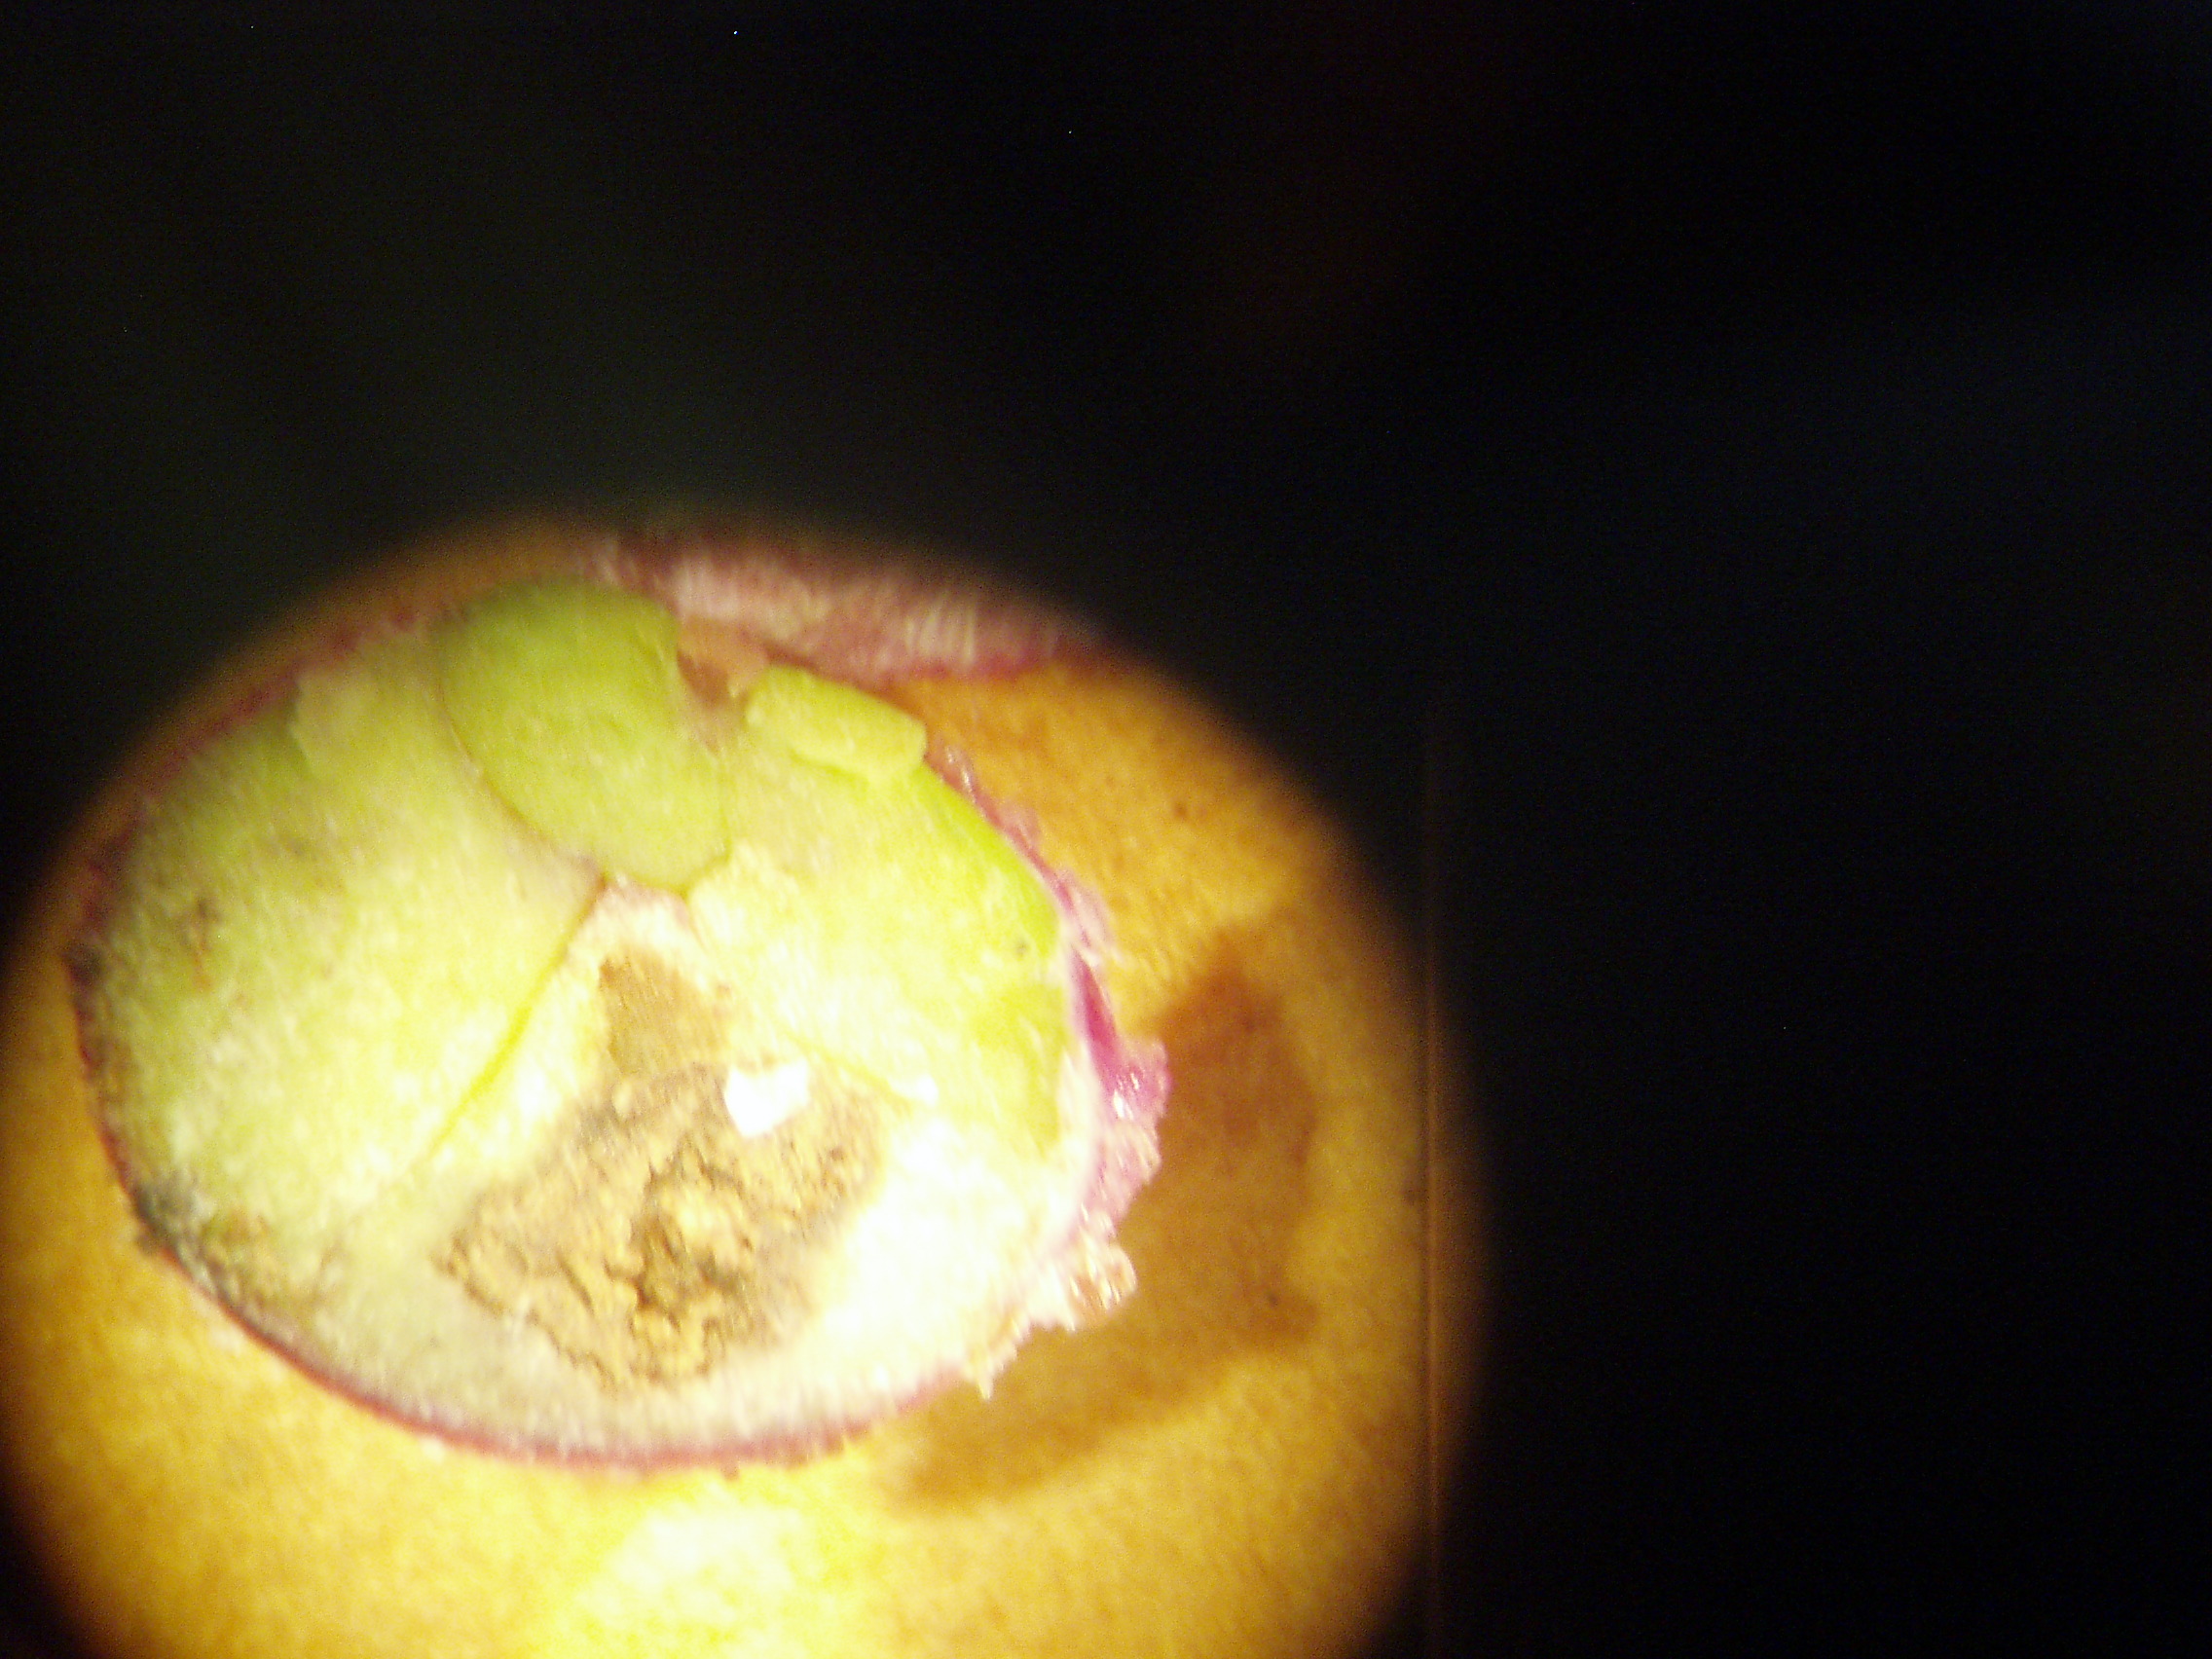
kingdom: Plantae
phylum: Tracheophyta
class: Magnoliopsida
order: Myrtales
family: Myrtaceae
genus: Syzygium
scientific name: Syzygium paniculatum
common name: Magenta lilly-pilly
